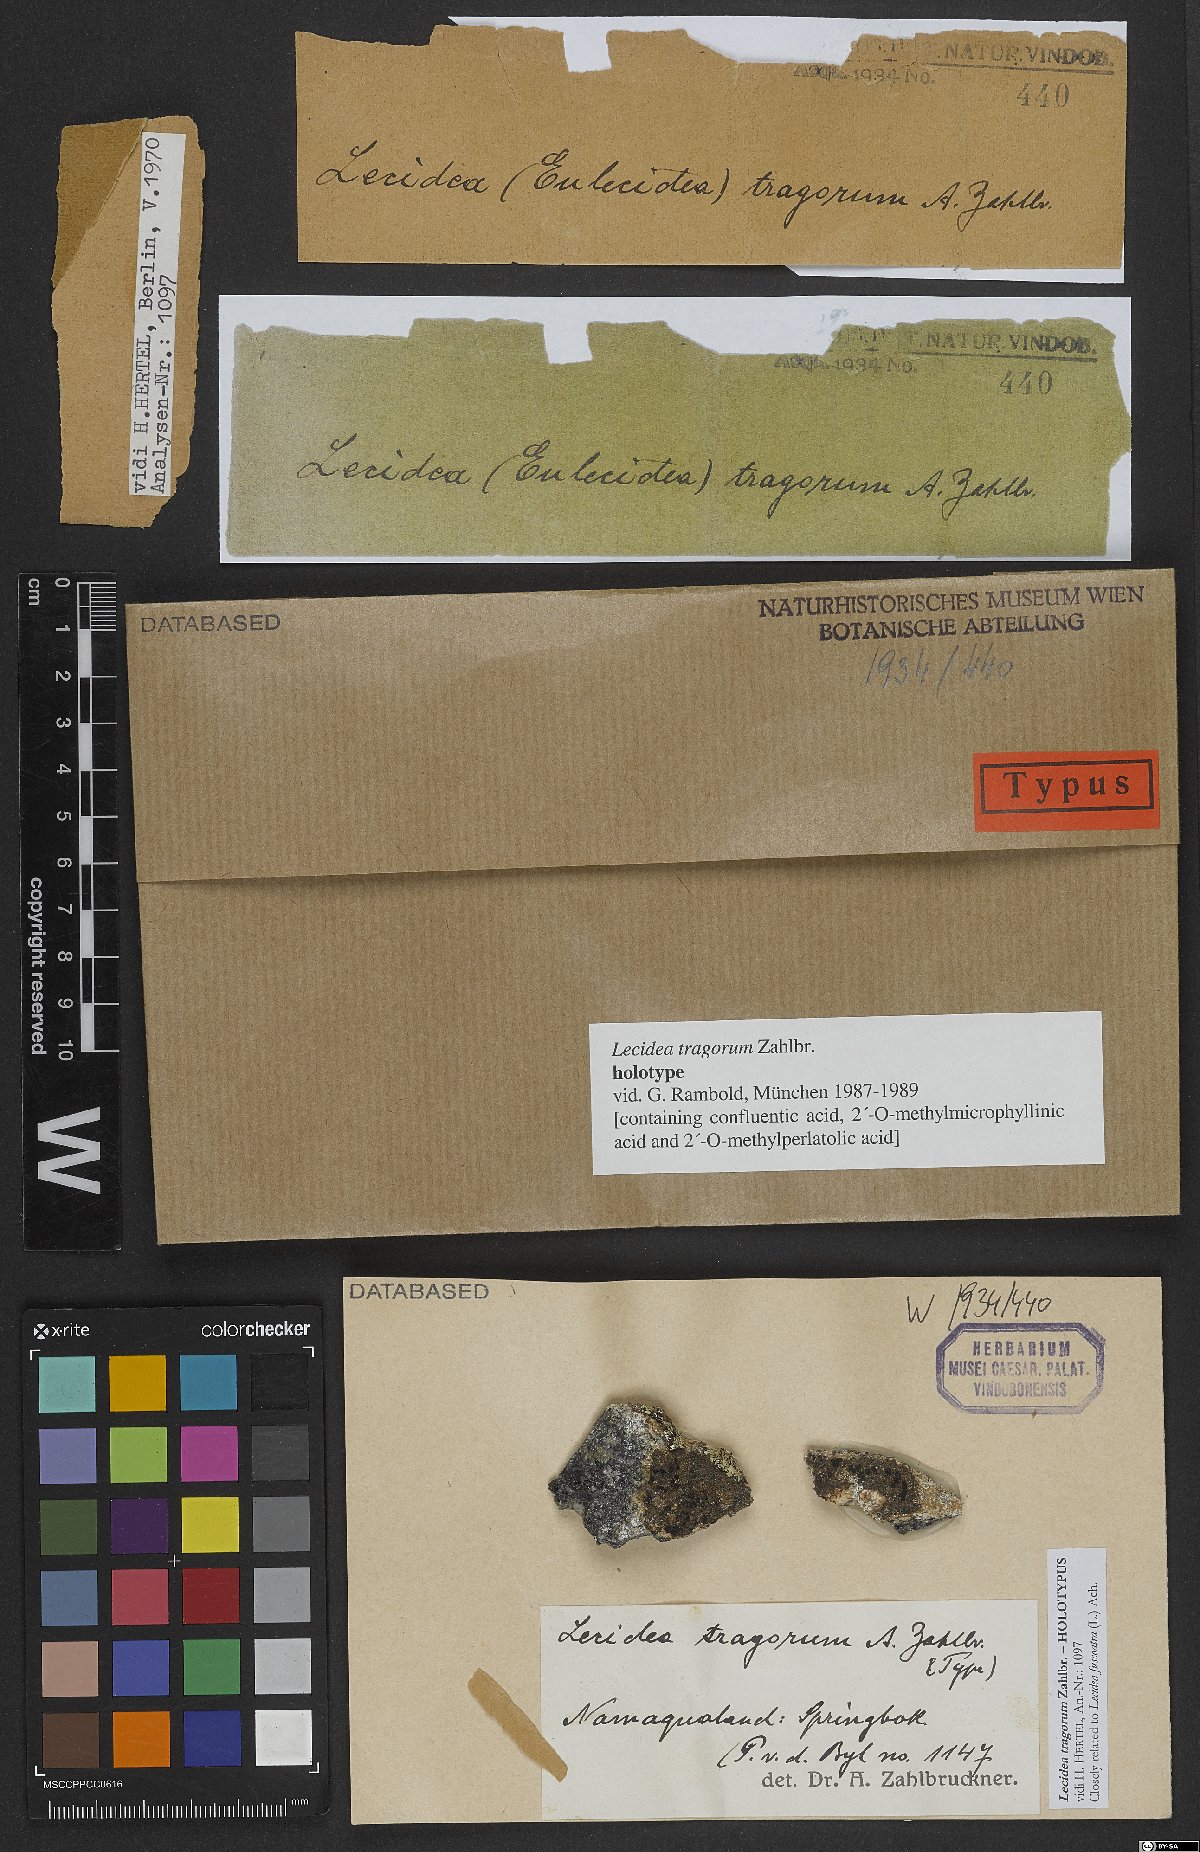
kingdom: Fungi
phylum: Ascomycota
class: Lecanoromycetes
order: Lecideales
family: Lecideaceae
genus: Lecidea
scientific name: Lecidea tragorum
